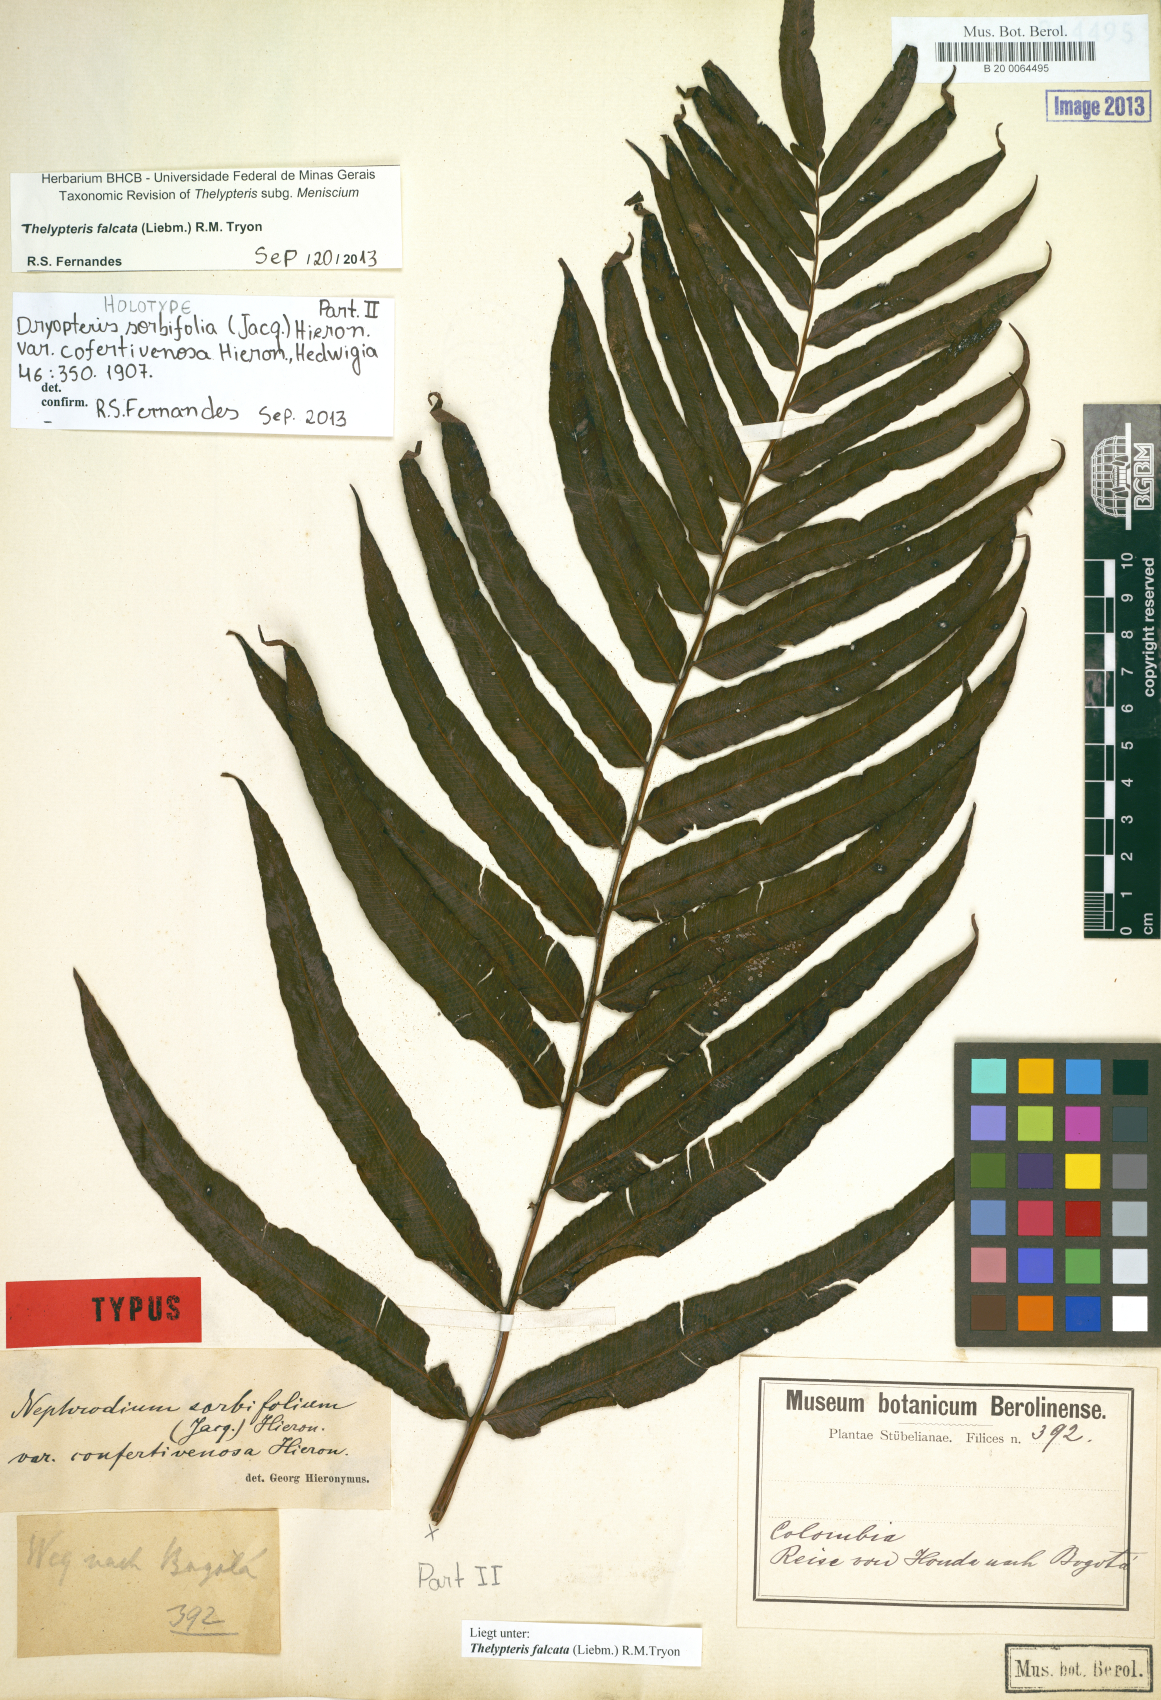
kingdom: Plantae
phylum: Tracheophyta
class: Polypodiopsida
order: Polypodiales
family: Thelypteridaceae
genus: Meniscium
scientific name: Meniscium falcatum
